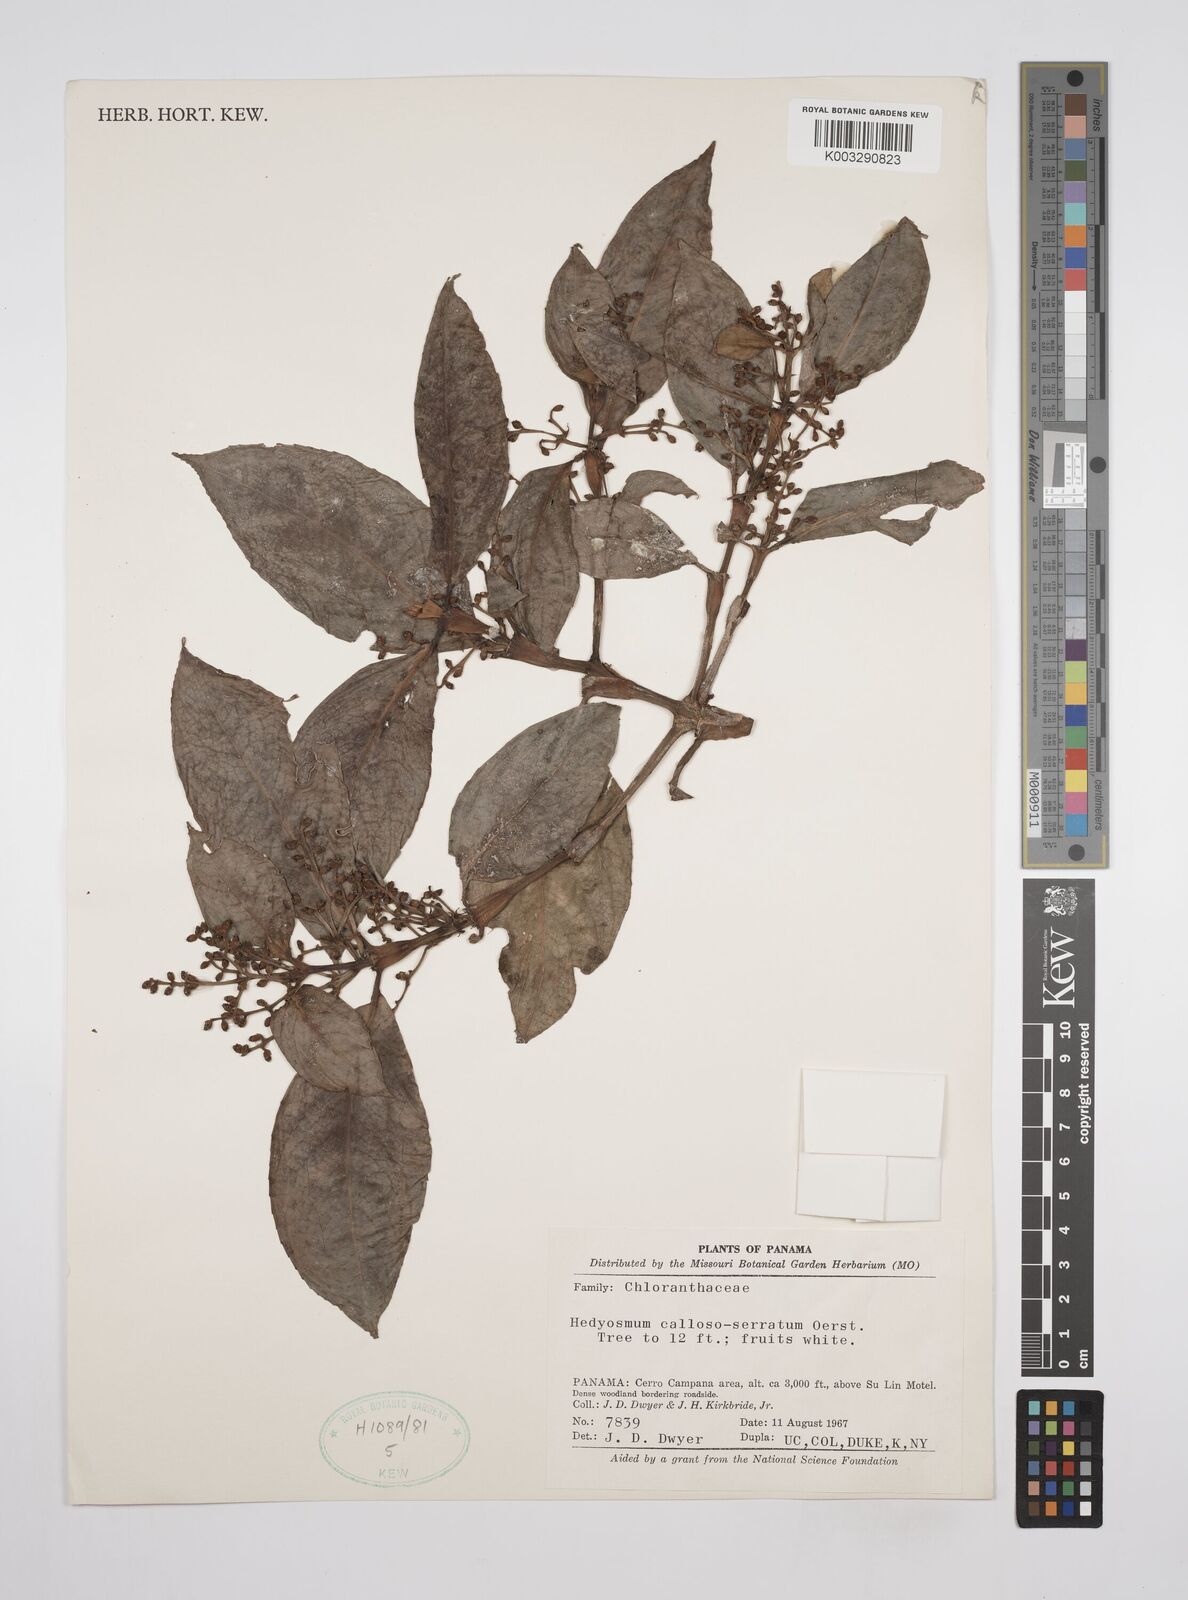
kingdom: Plantae
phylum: Tracheophyta
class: Magnoliopsida
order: Chloranthales
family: Chloranthaceae
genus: Hedyosmum
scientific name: Hedyosmum bonplandianum
